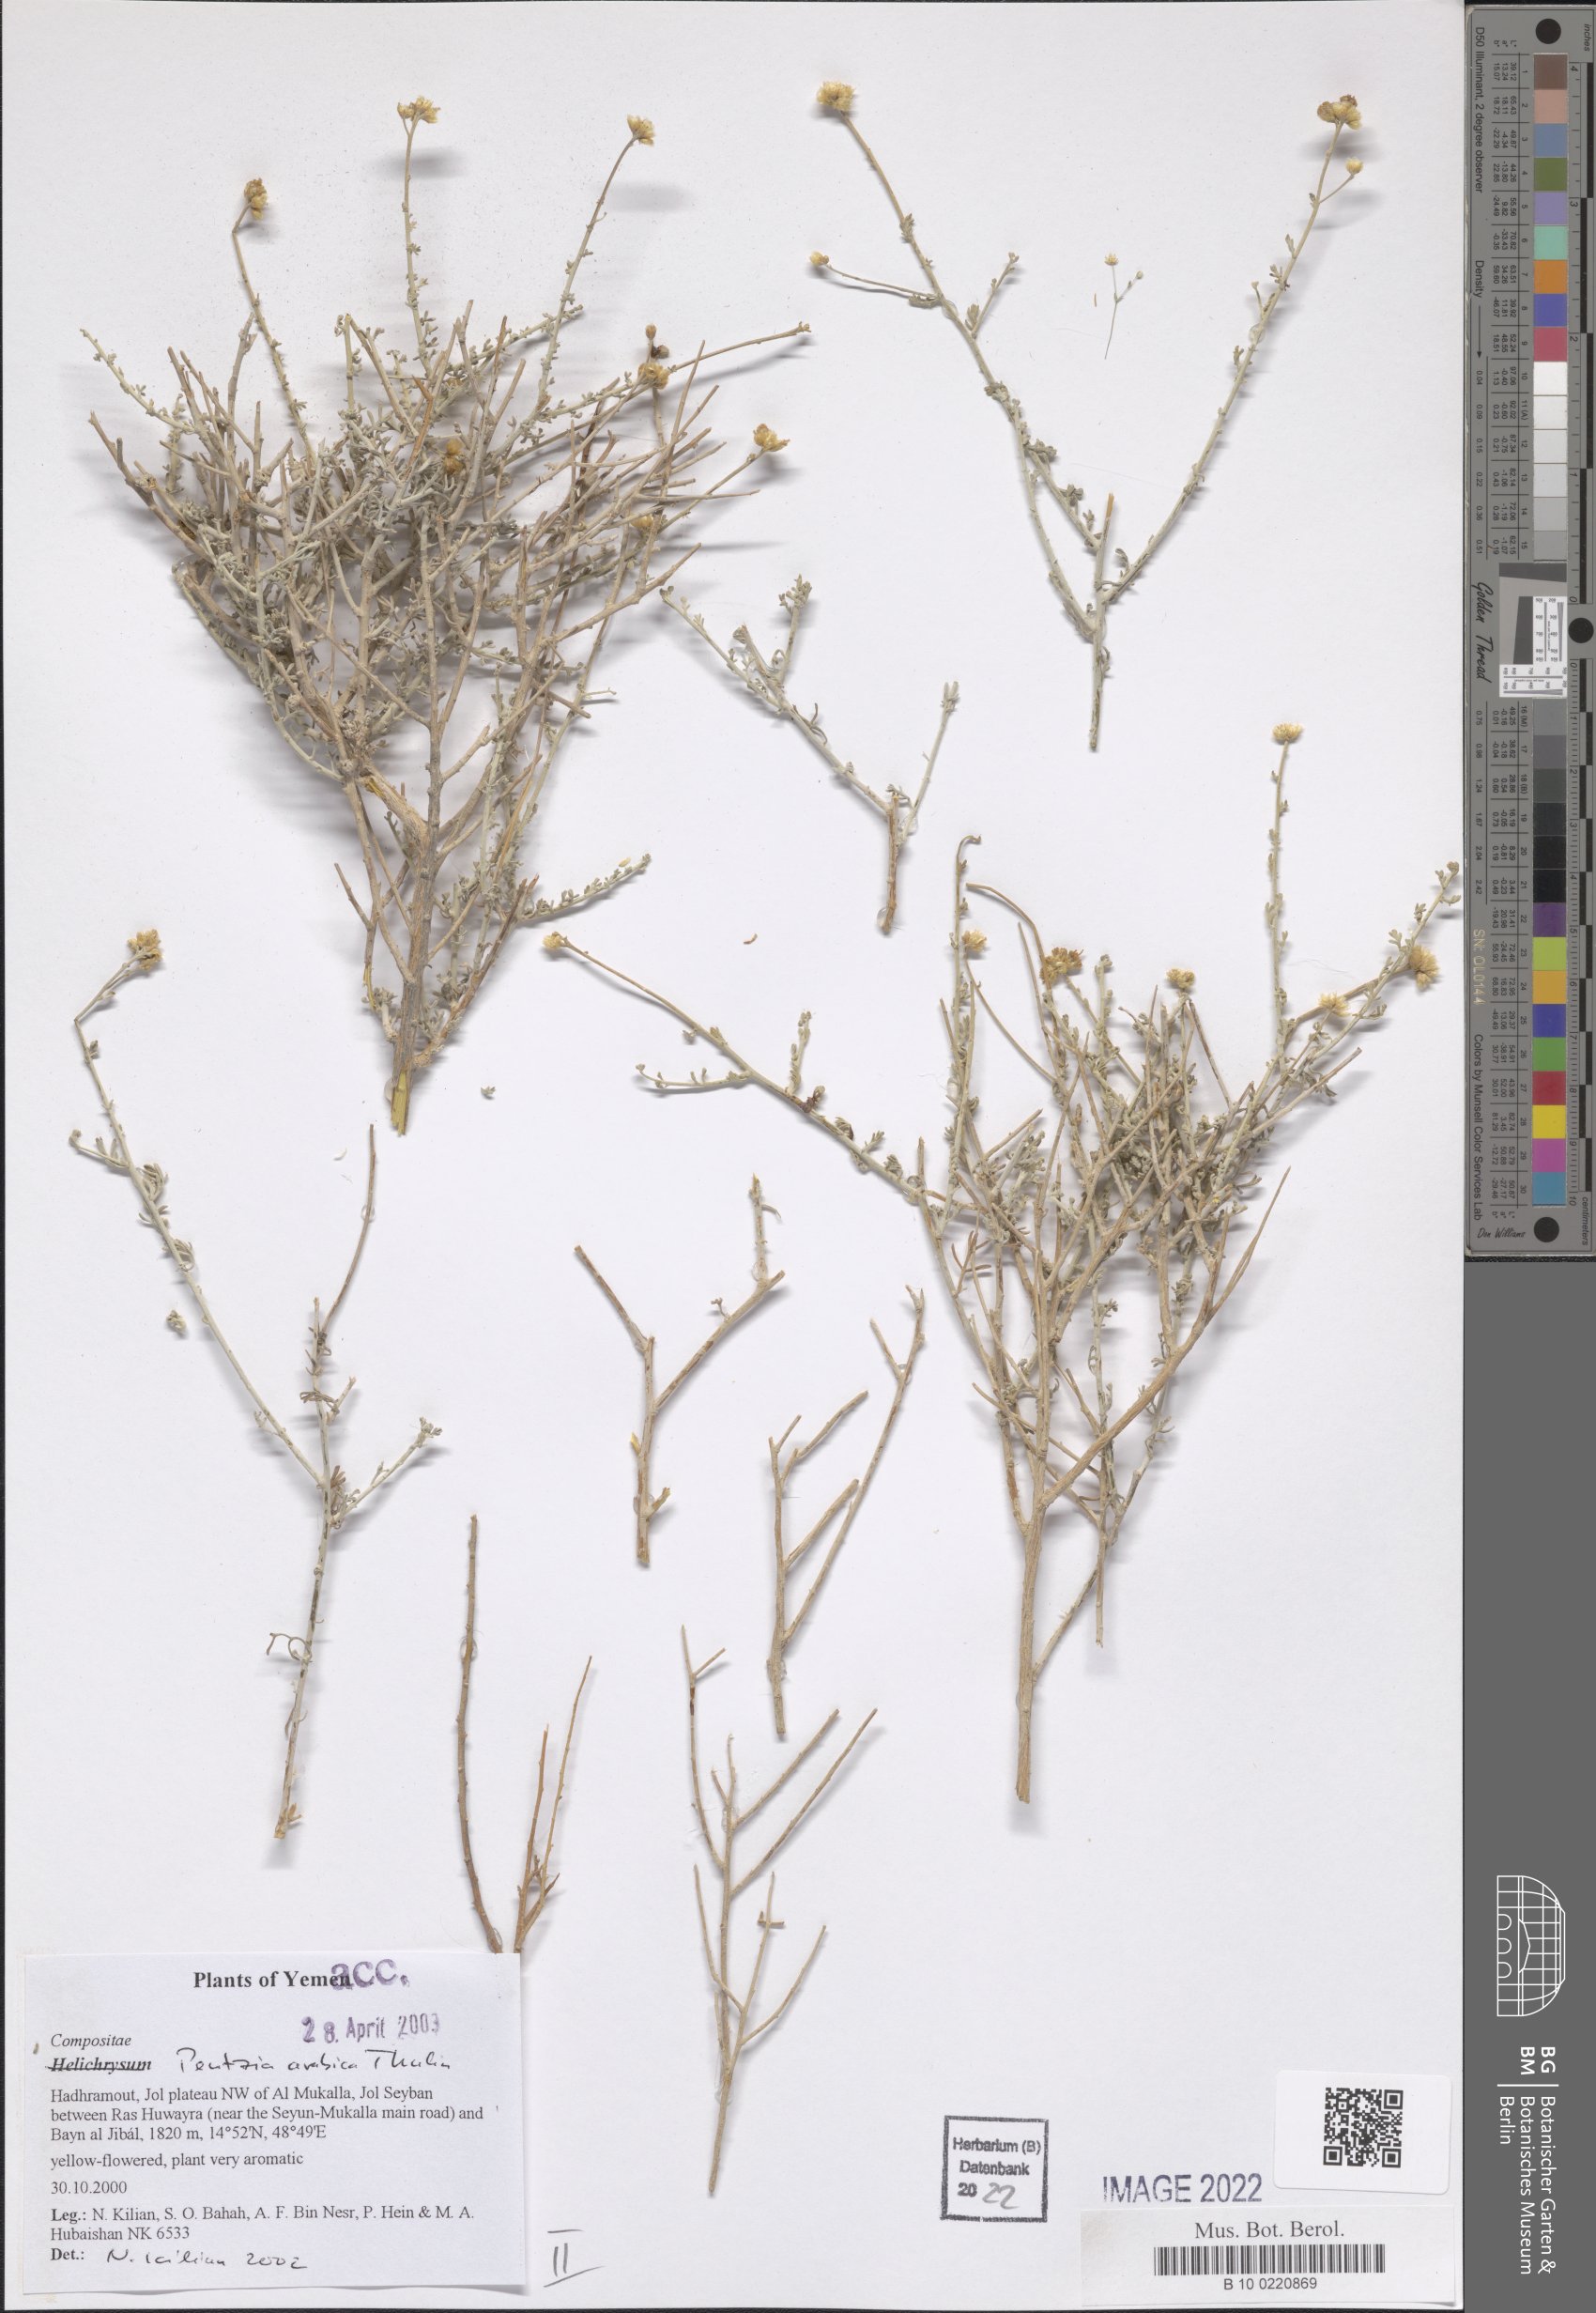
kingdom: Plantae
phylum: Tracheophyta
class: Magnoliopsida
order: Asterales
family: Asteraceae
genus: Pentzia
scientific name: Pentzia arabica
